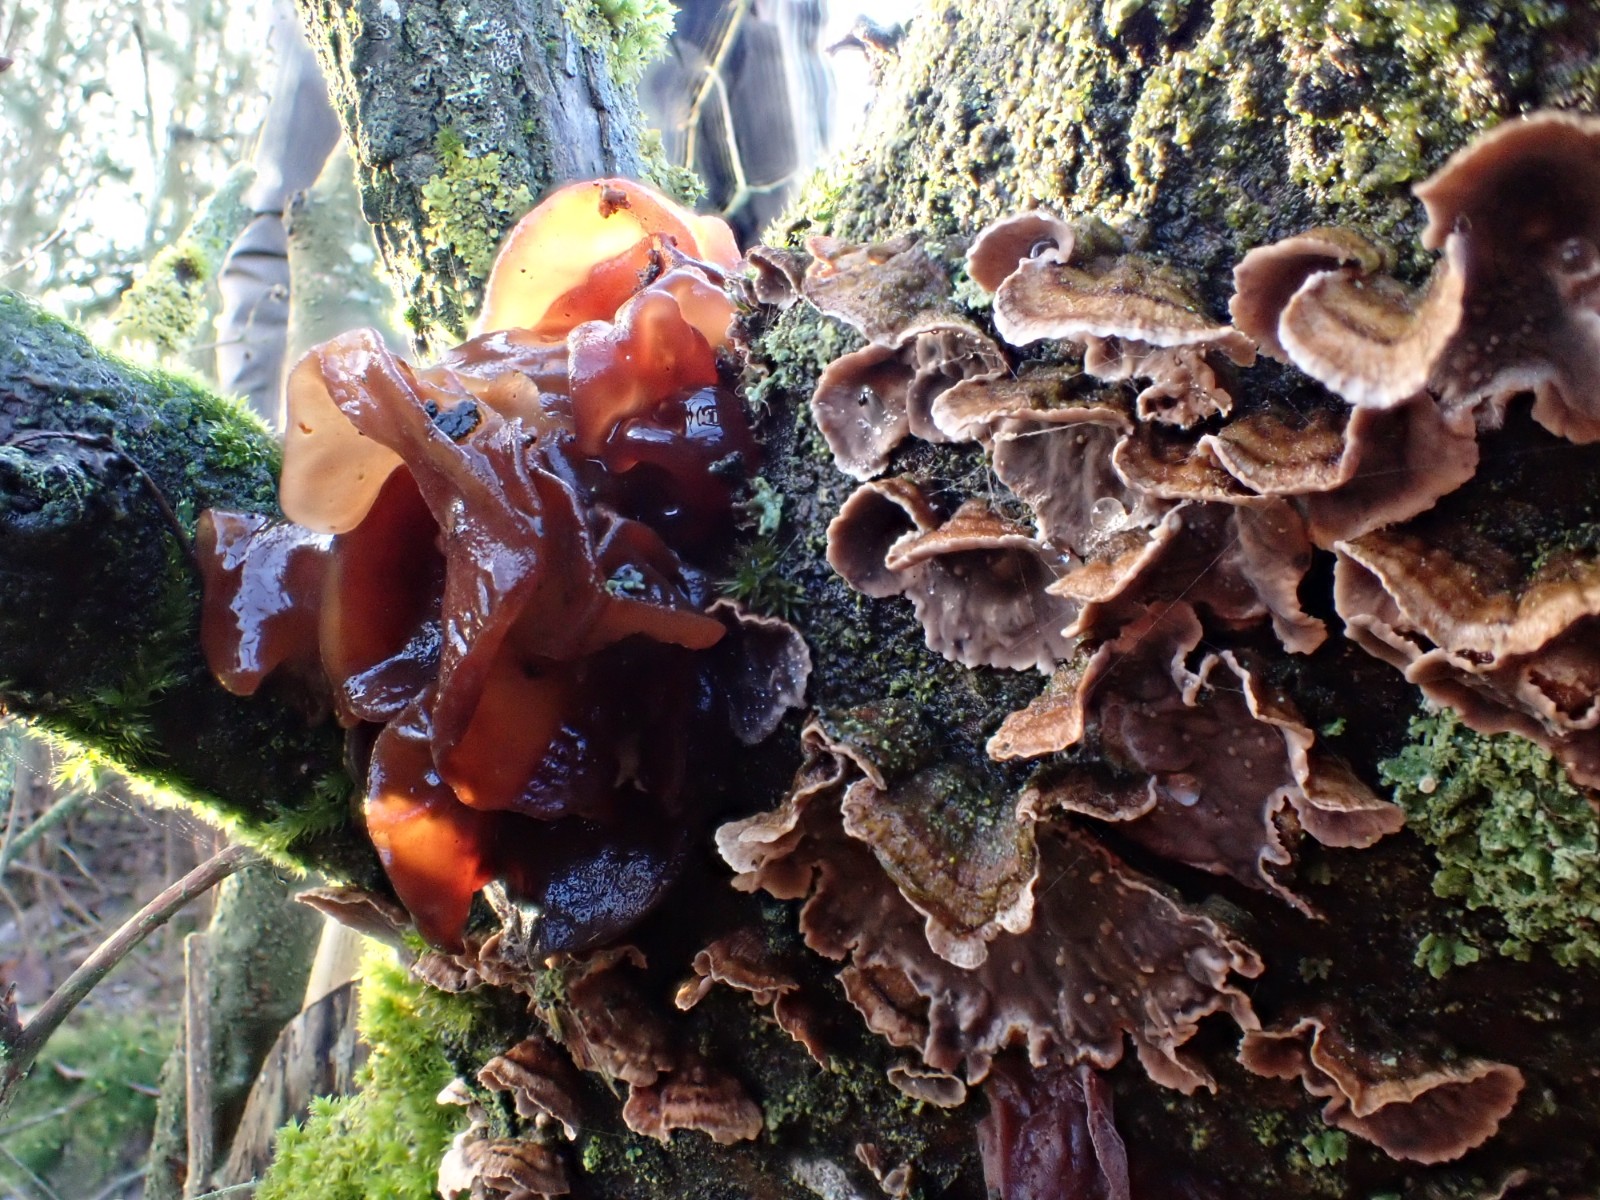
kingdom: Fungi
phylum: Basidiomycota
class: Tremellomycetes
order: Tremellales
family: Tremellaceae
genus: Phaeotremella
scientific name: Phaeotremella foliacea
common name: brun bævresvamp
